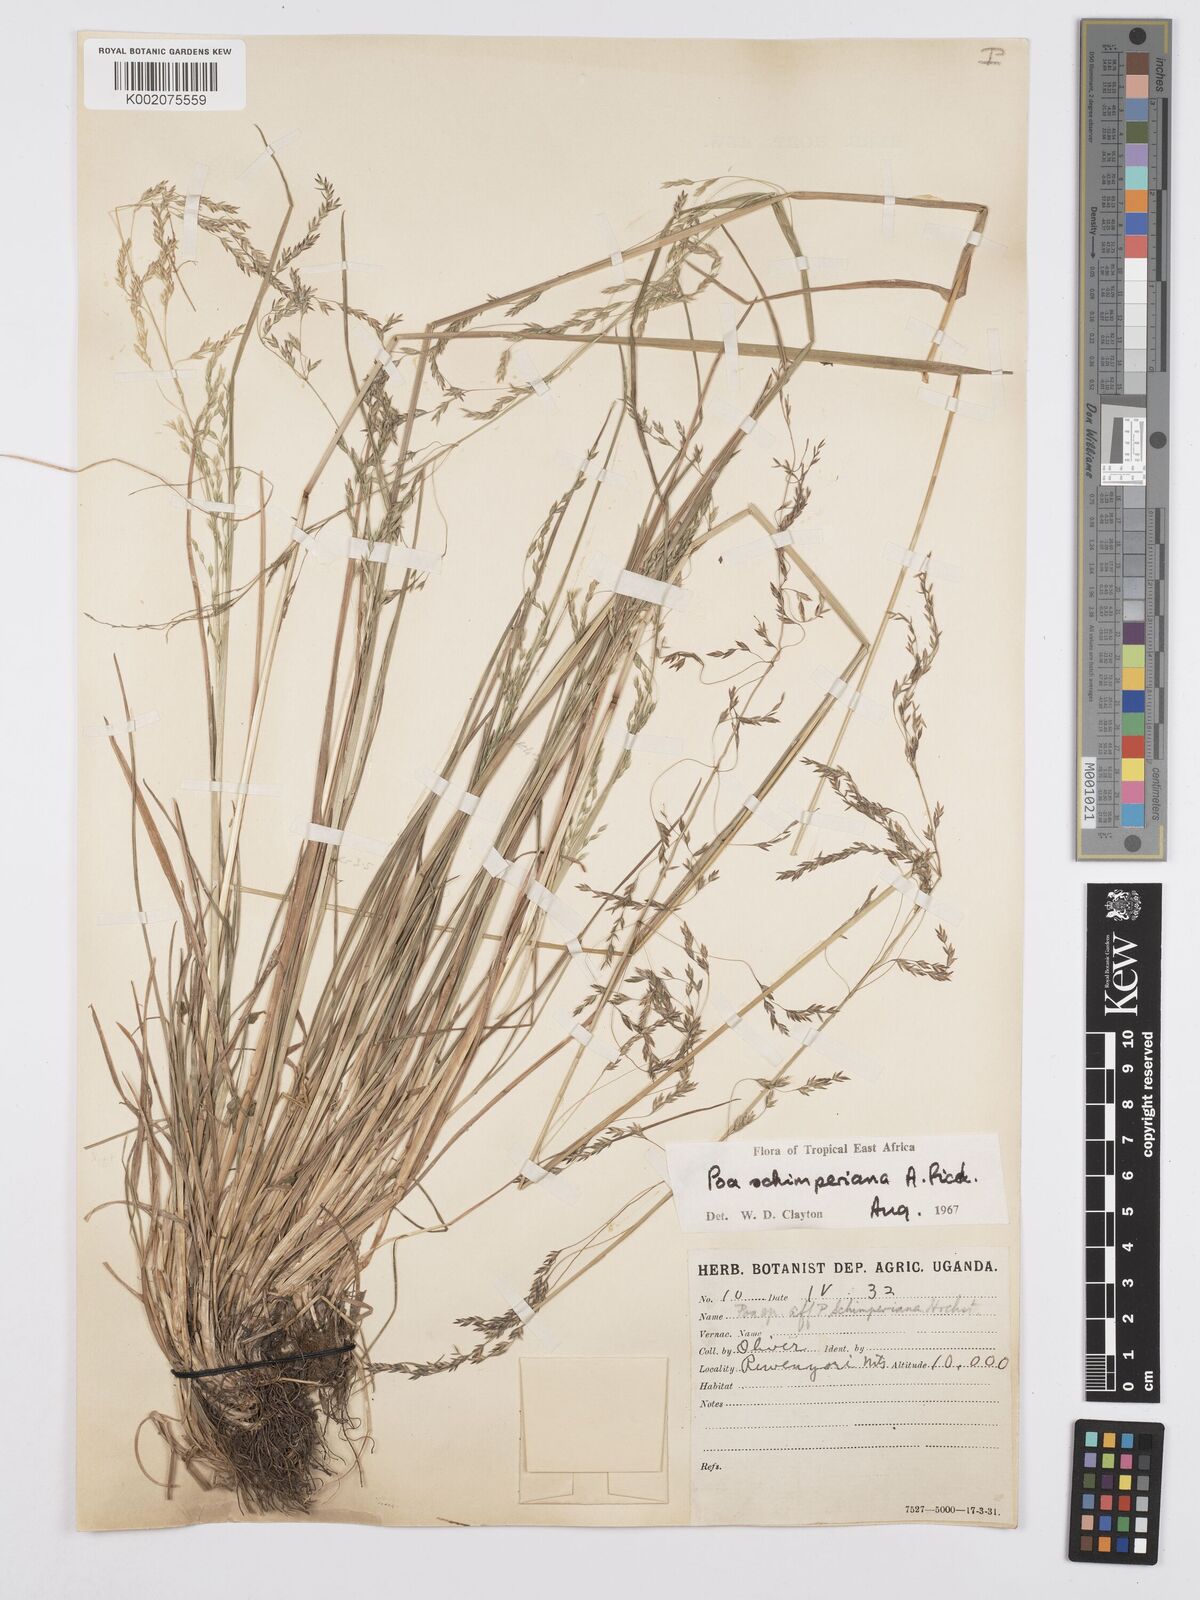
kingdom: Plantae
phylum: Tracheophyta
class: Liliopsida
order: Poales
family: Poaceae
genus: Poa
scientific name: Poa schimperiana
